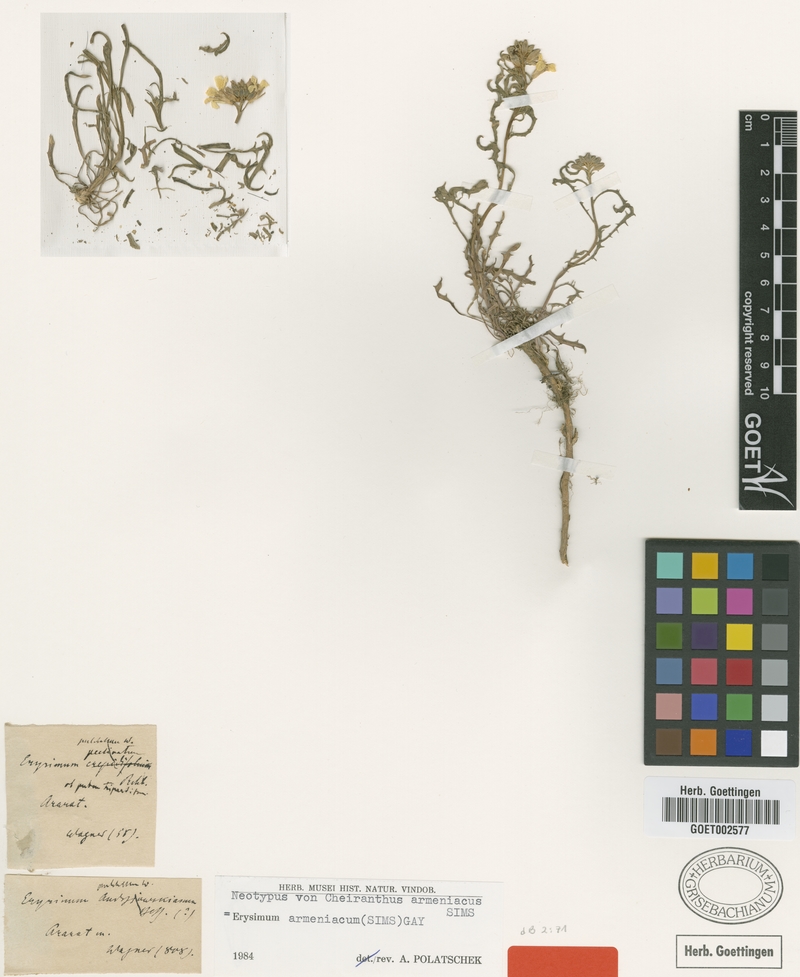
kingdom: Plantae
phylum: Tracheophyta
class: Magnoliopsida
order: Brassicales
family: Brassicaceae
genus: Erysimum
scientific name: Erysimum armeniacum
